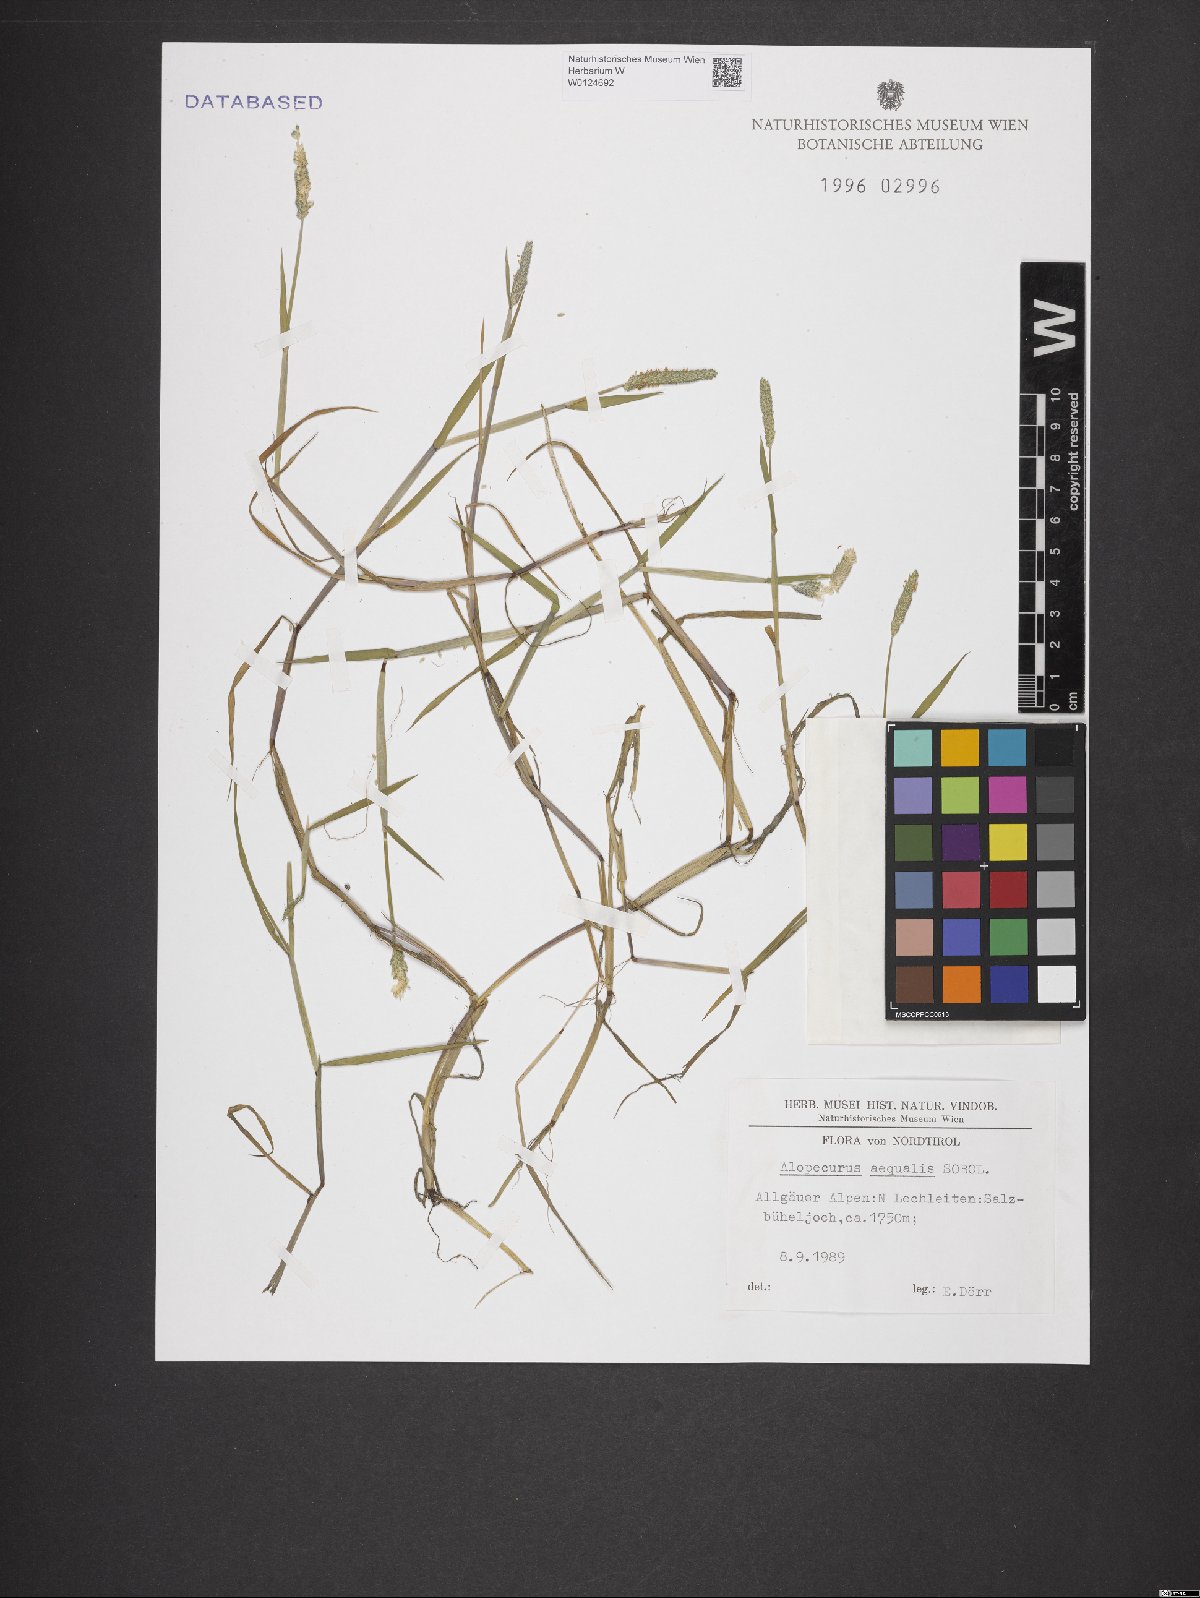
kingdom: Plantae
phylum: Tracheophyta
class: Liliopsida
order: Poales
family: Poaceae
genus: Alopecurus
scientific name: Alopecurus aequalis
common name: Orange foxtail
